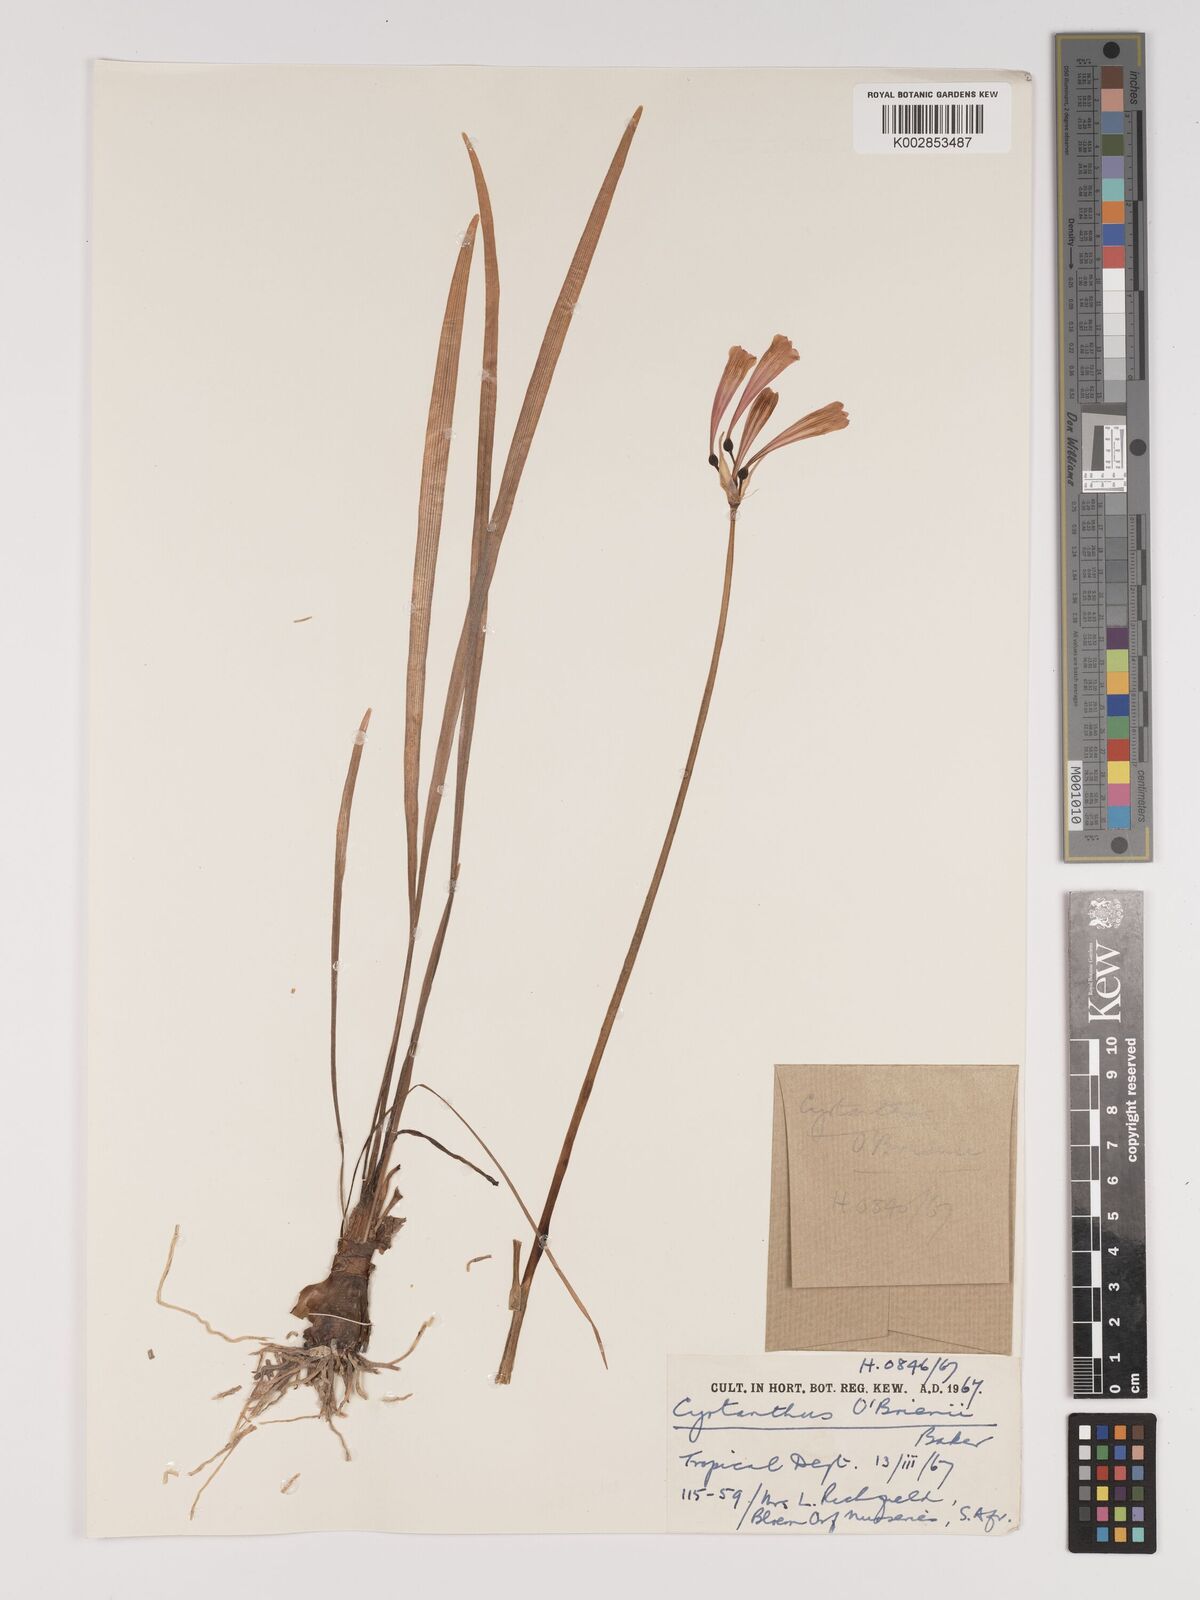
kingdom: Plantae
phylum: Tracheophyta
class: Liliopsida
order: Asparagales
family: Amaryllidaceae
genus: Cyrtanthus
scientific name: Cyrtanthus obrienii
